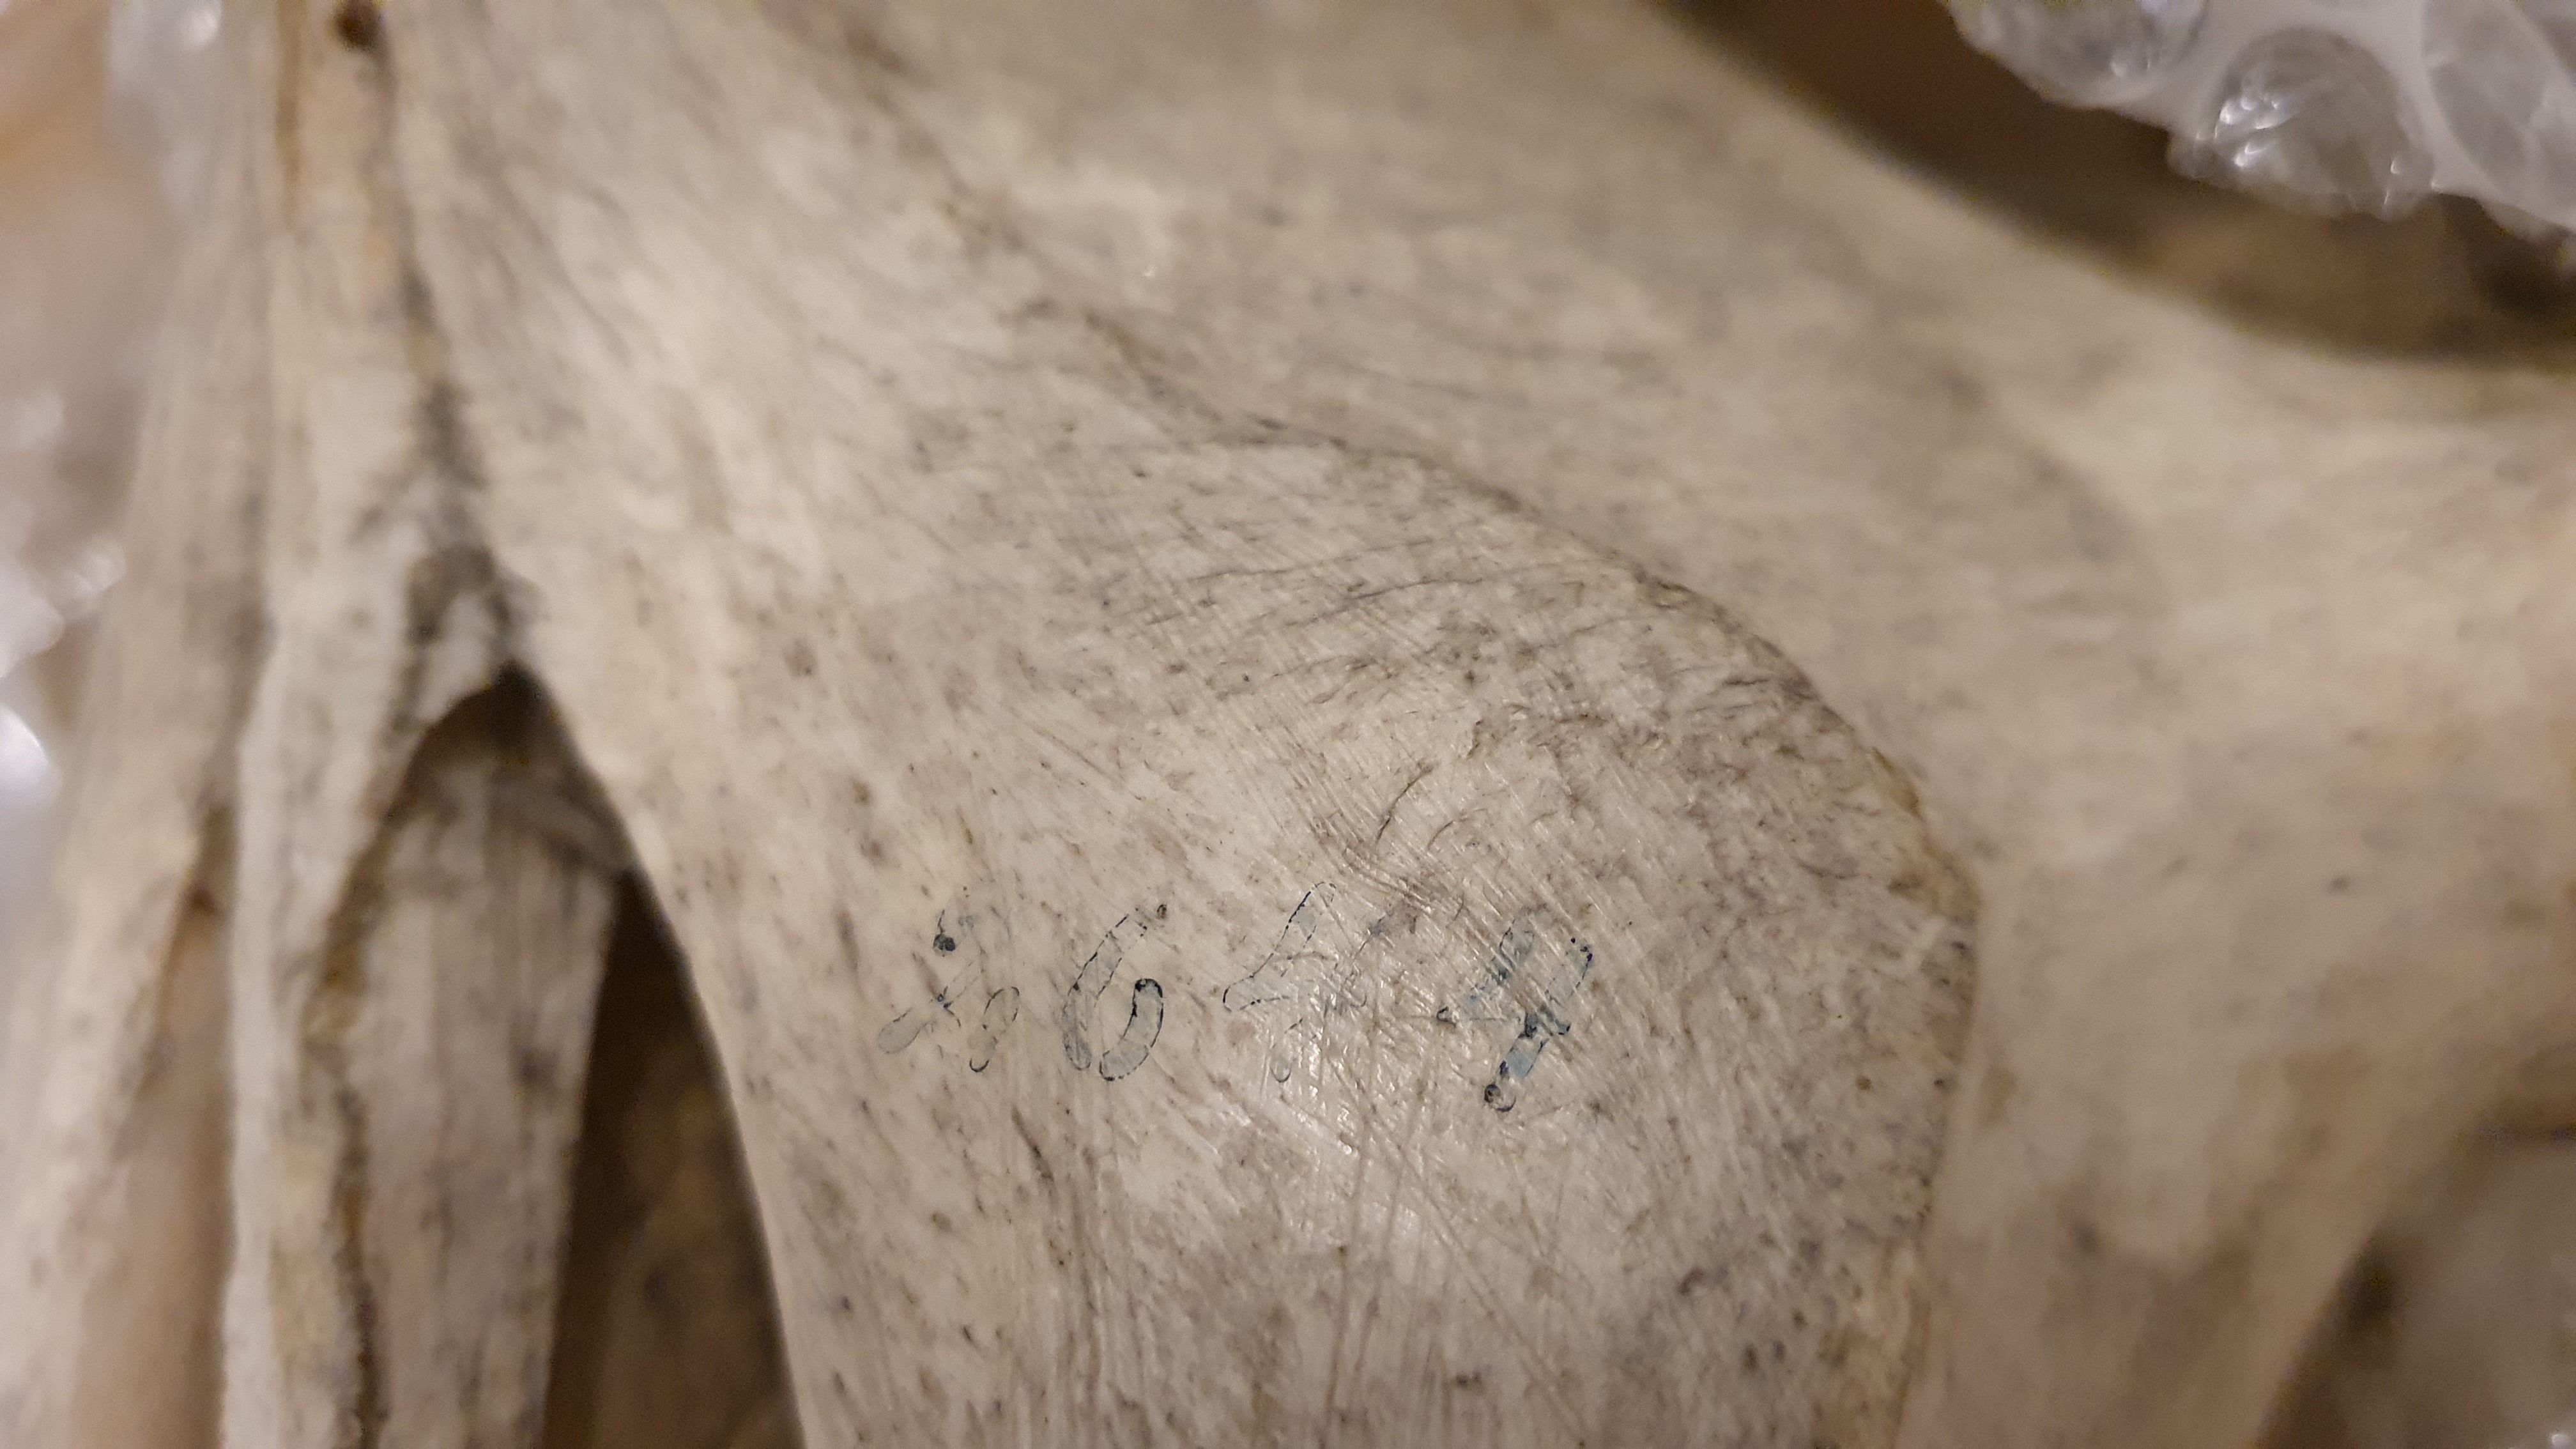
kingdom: Animalia
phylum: Chordata
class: Aves
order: Struthioniformes
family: Struthionidae
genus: Struthio
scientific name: Struthio camelus
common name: Common ostrich
